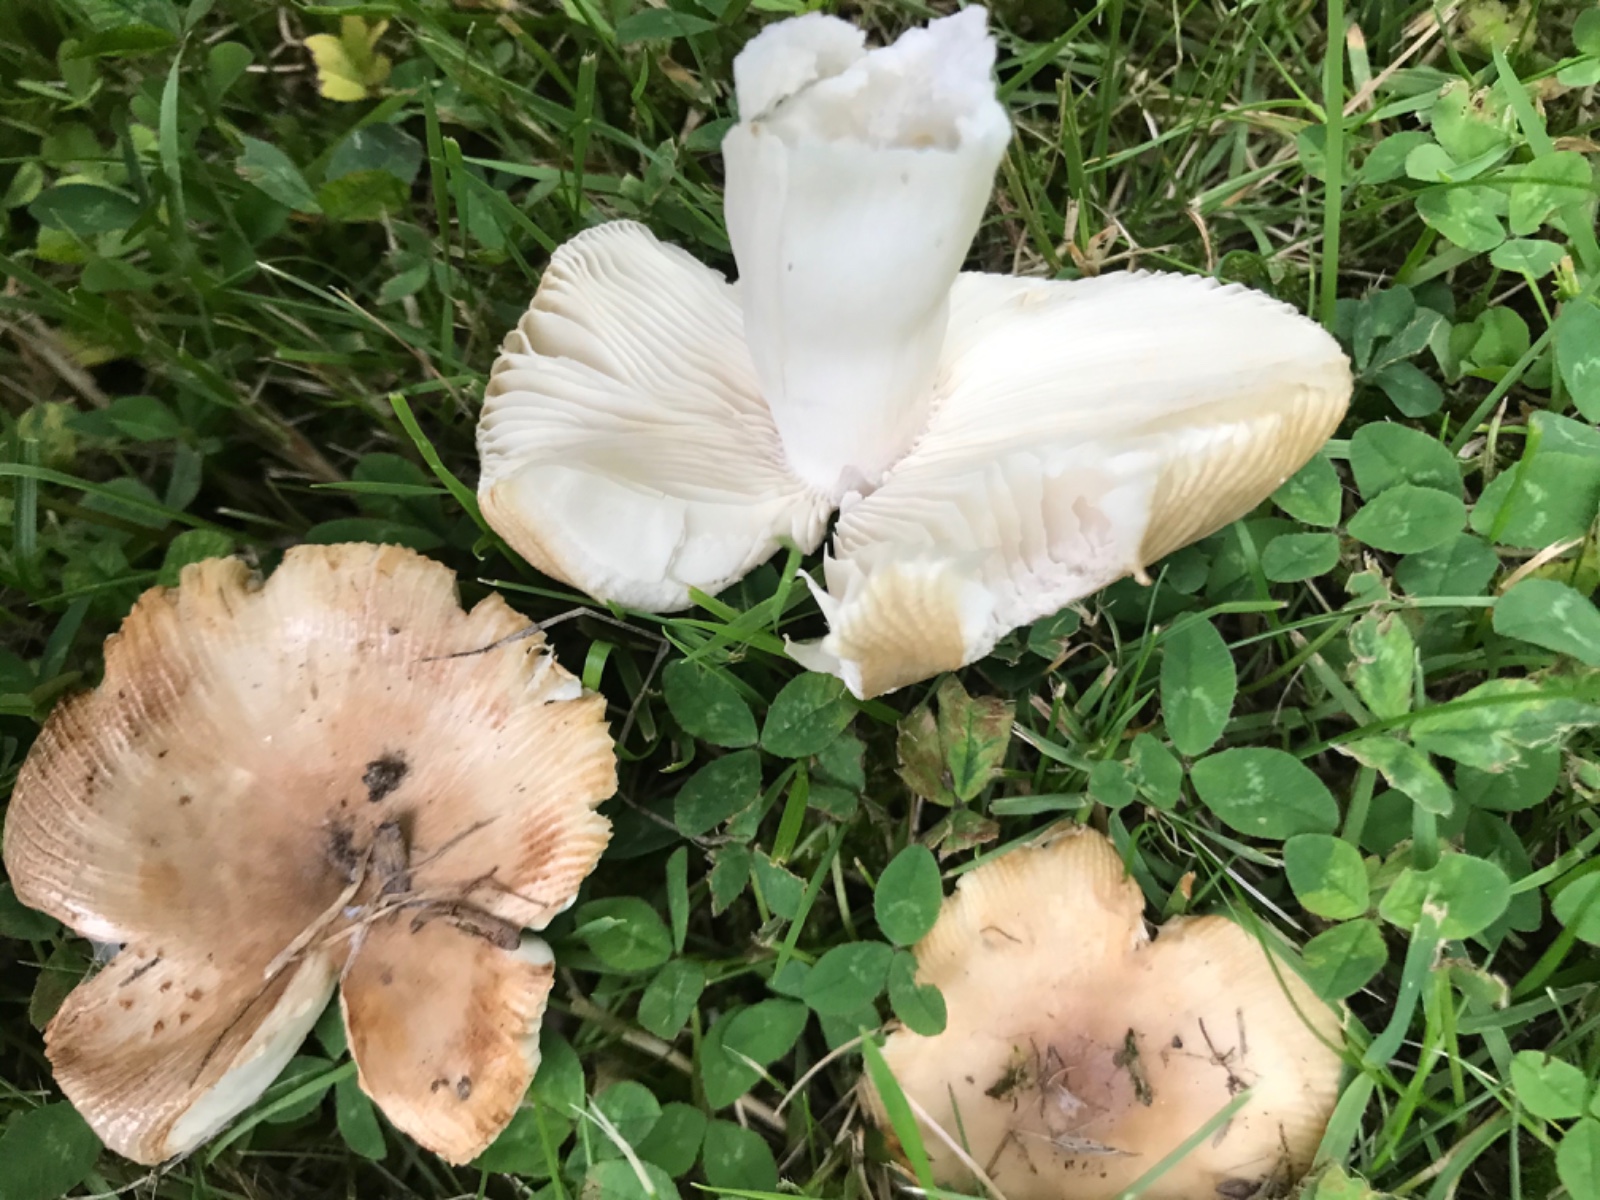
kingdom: Fungi
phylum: Basidiomycota
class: Agaricomycetes
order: Russulales
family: Russulaceae
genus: Russula
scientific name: Russula recondita
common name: mild kam-skørhat
